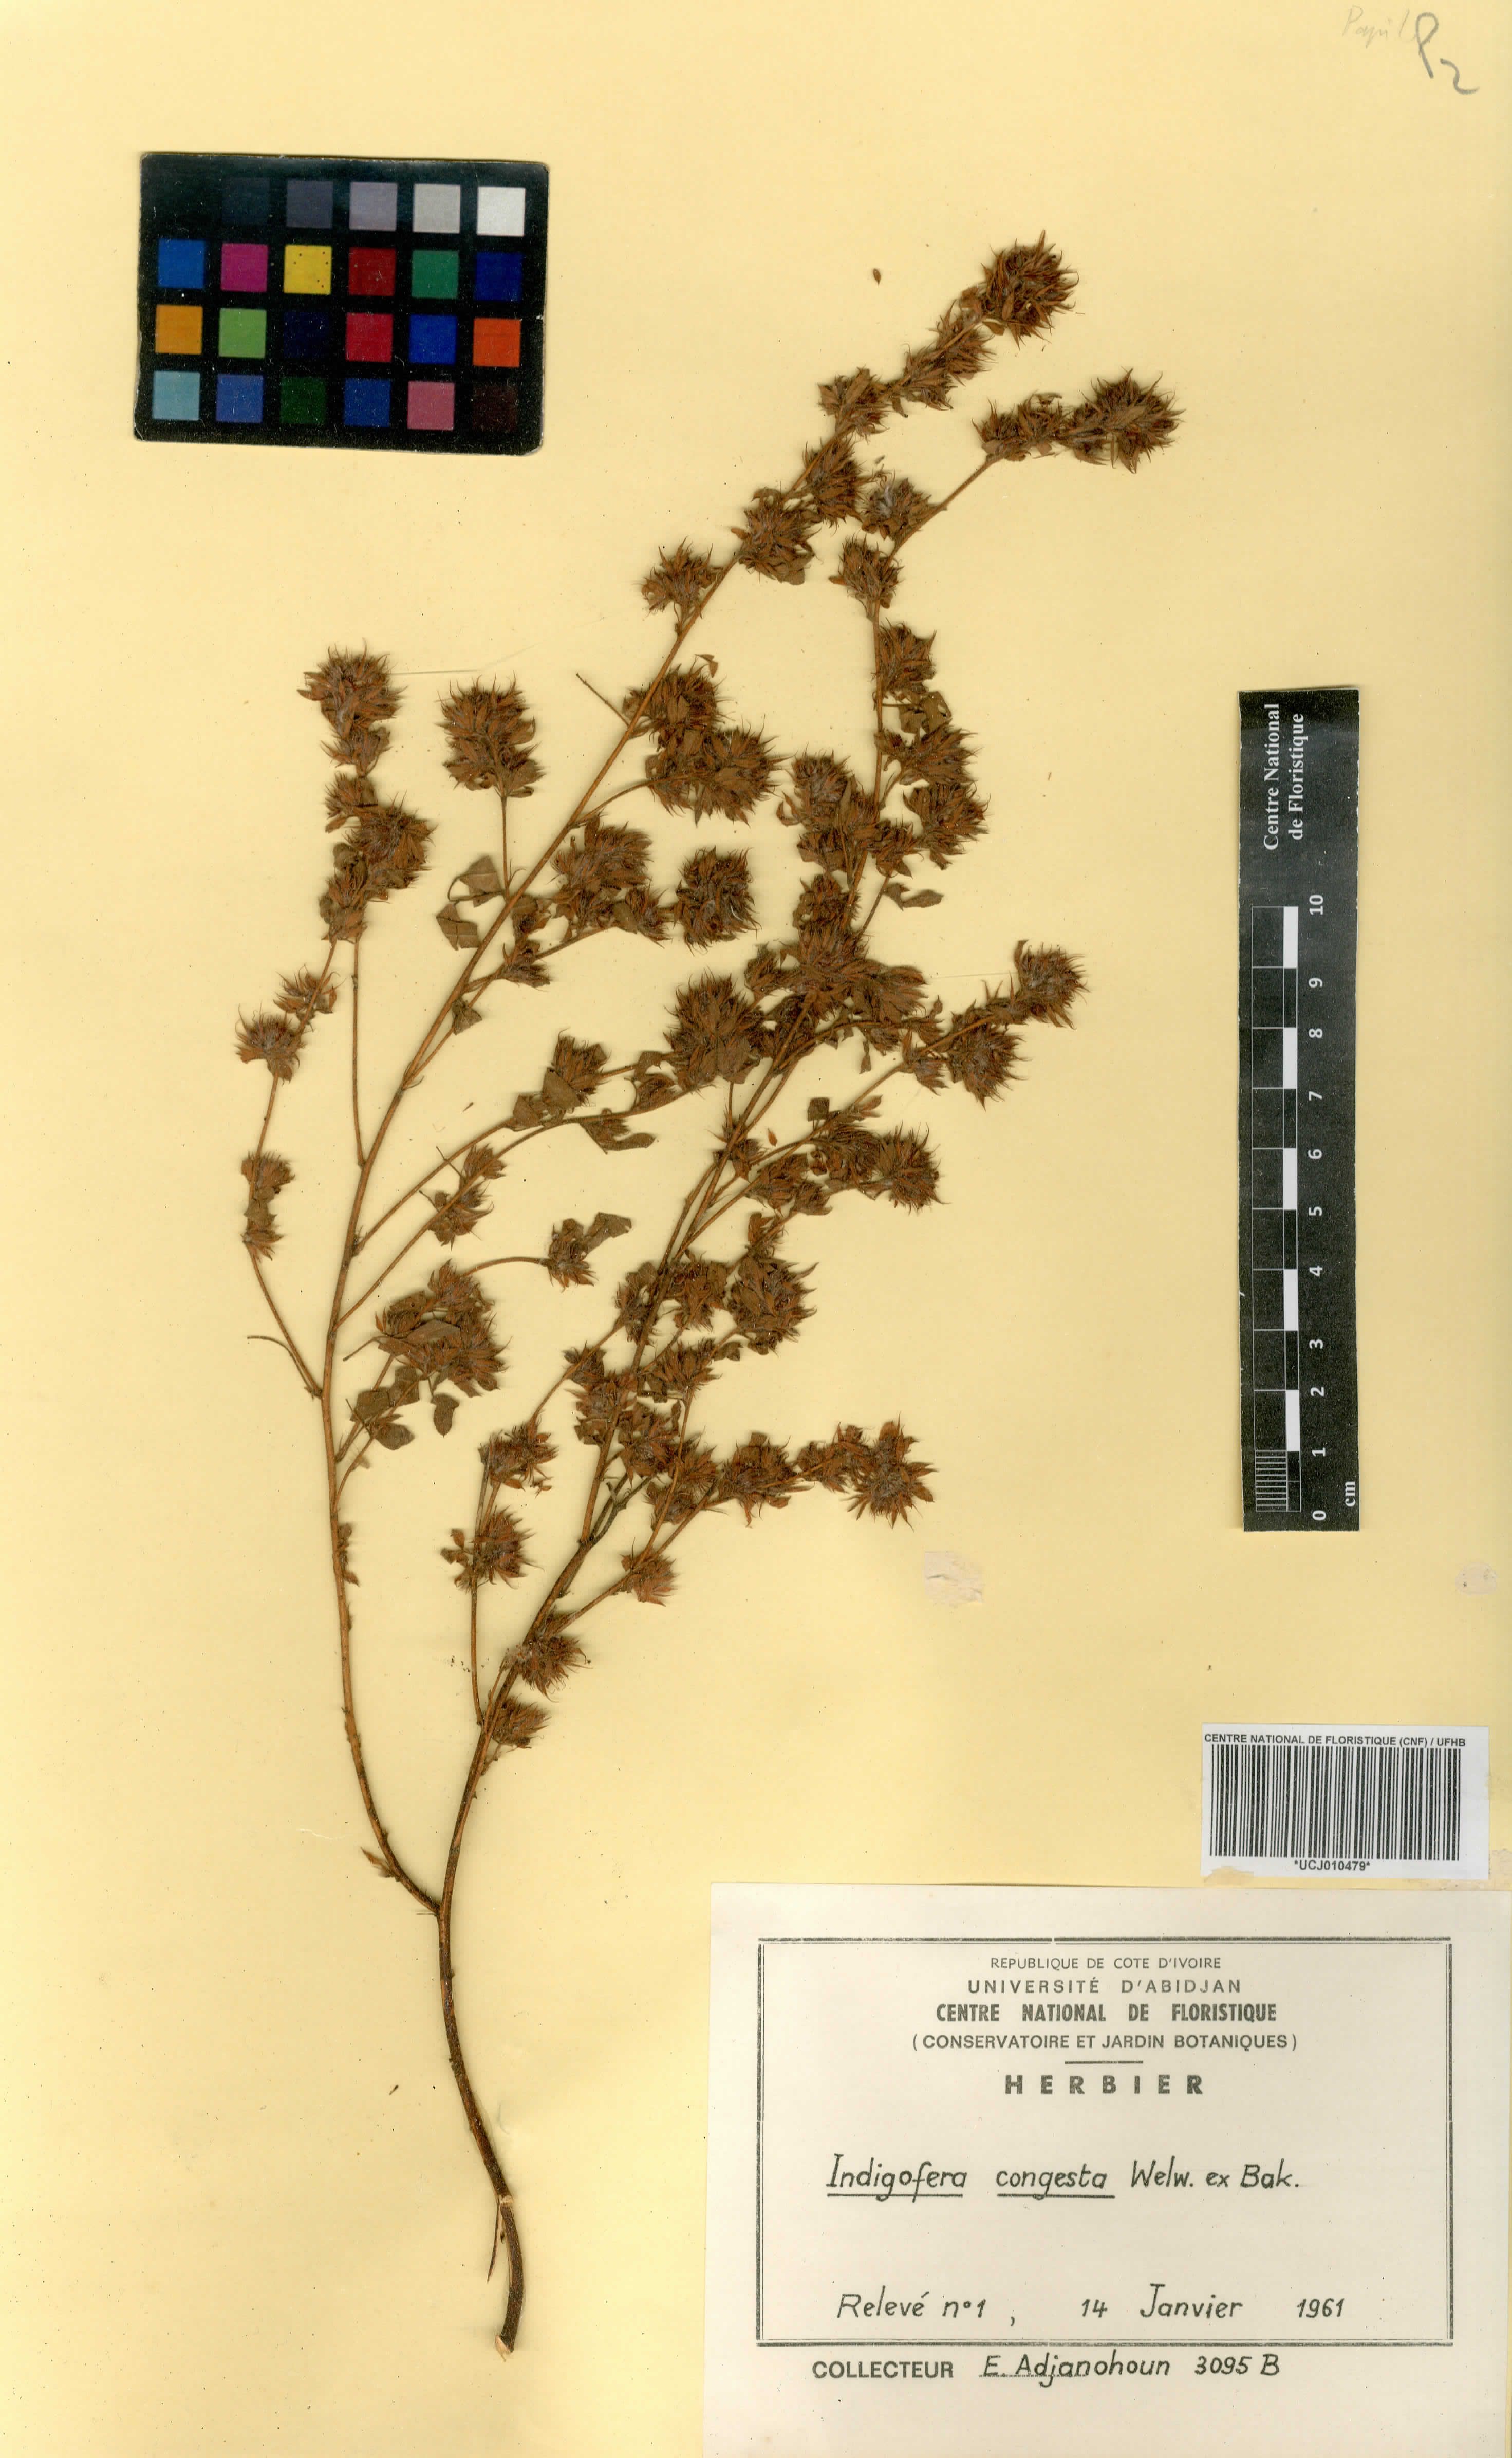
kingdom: Plantae
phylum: Tracheophyta
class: Magnoliopsida
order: Fabales
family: Fabaceae
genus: Indigofera
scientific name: Indigofera congesta
